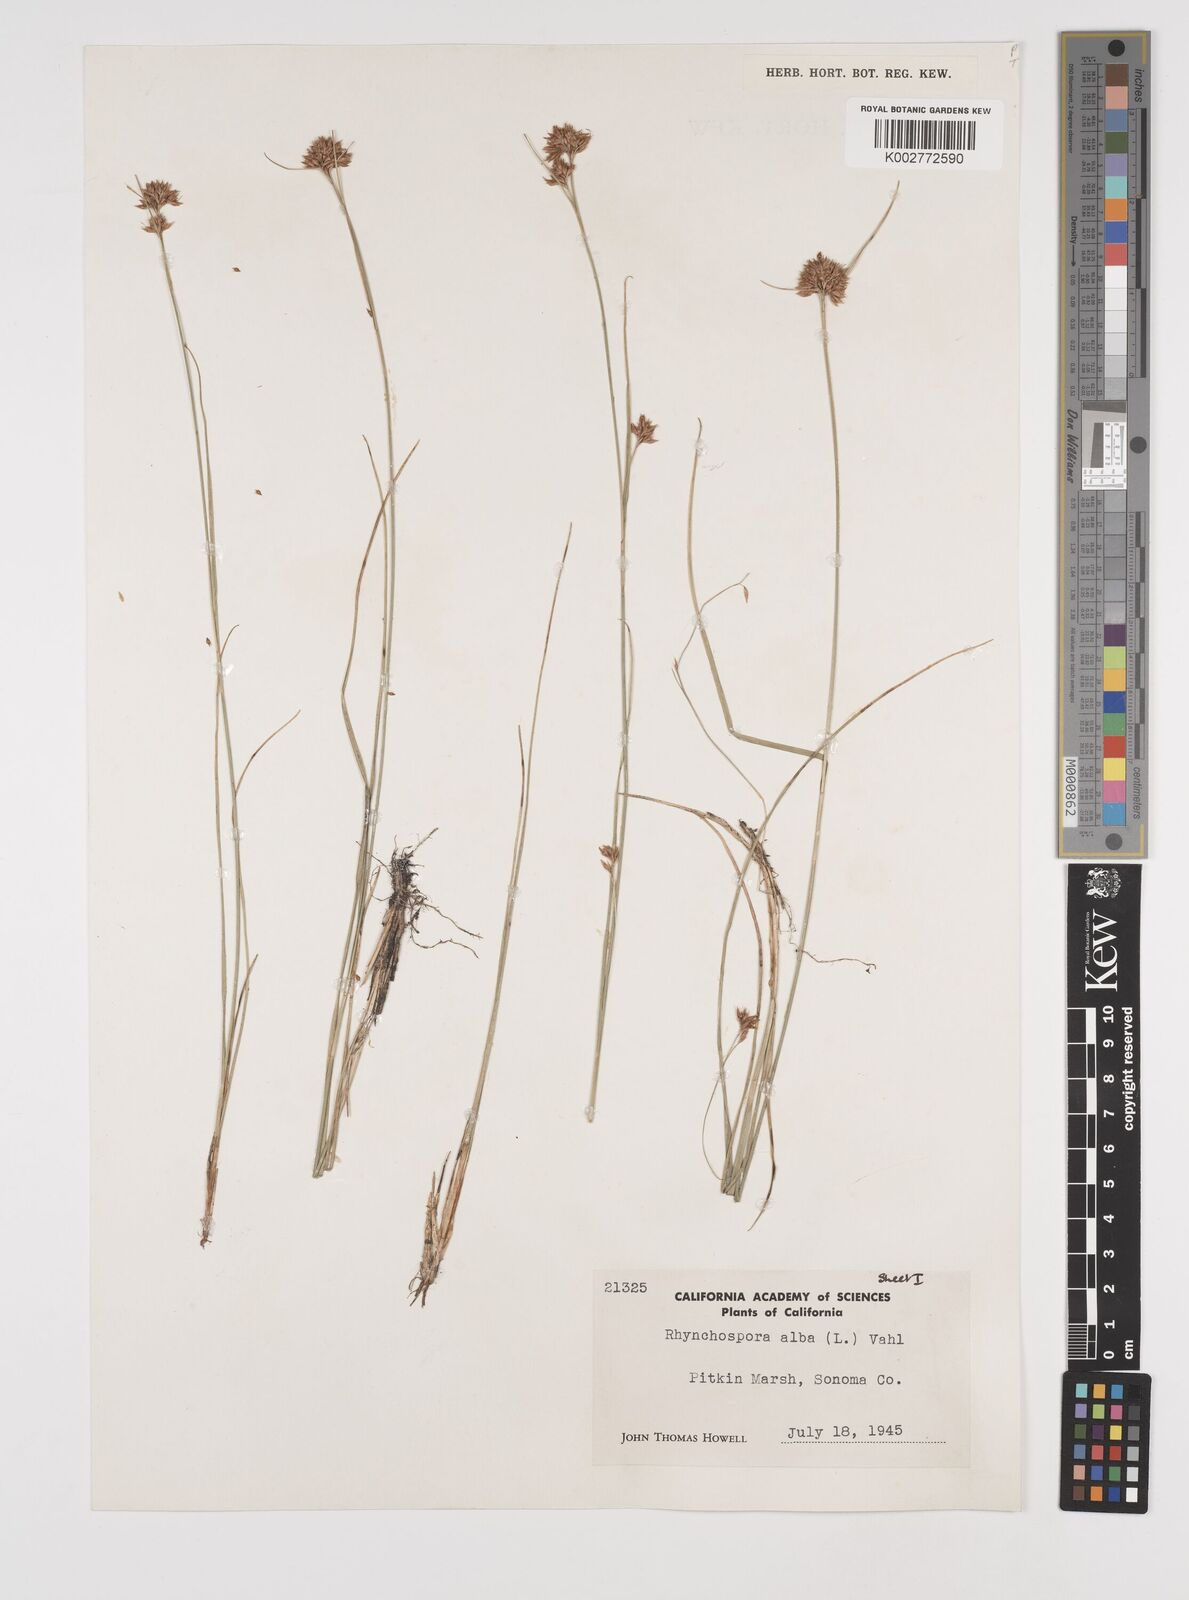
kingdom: Plantae
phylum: Tracheophyta
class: Liliopsida
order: Poales
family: Cyperaceae
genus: Rhynchospora
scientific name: Rhynchospora alba
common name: White beak-sedge
